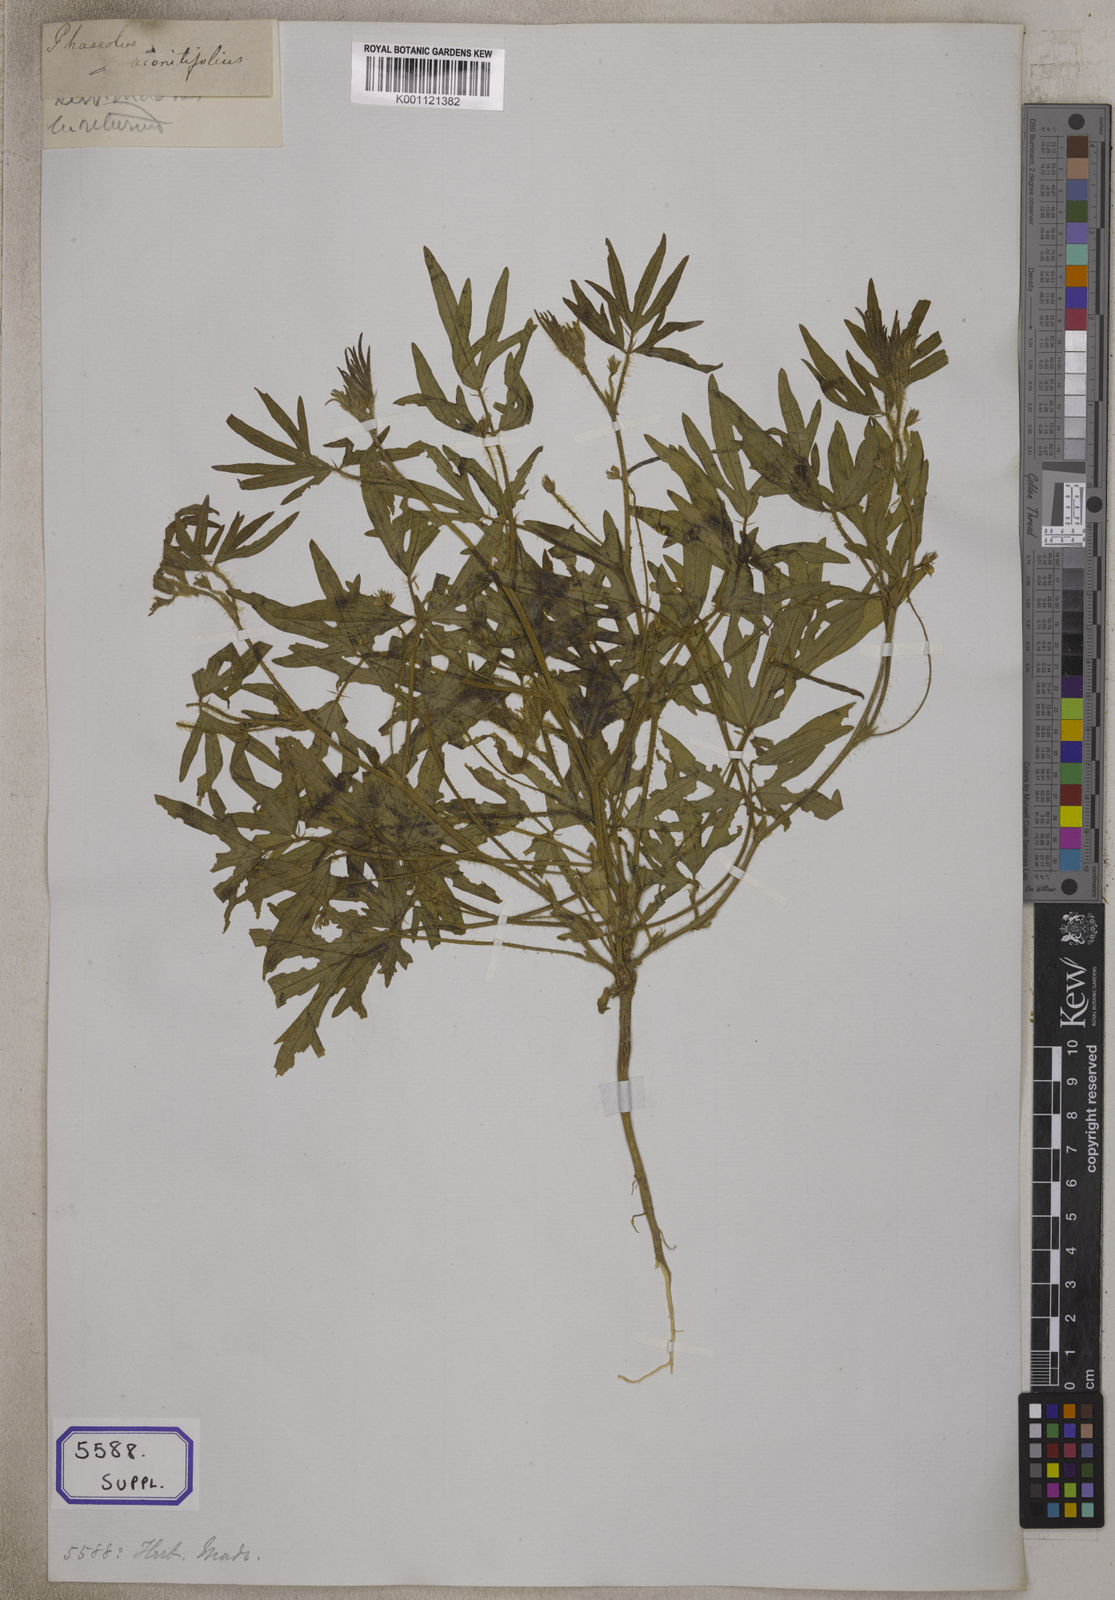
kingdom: Plantae
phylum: Tracheophyta
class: Magnoliopsida
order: Fabales
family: Fabaceae
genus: Phaseolus
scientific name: Phaseolus
